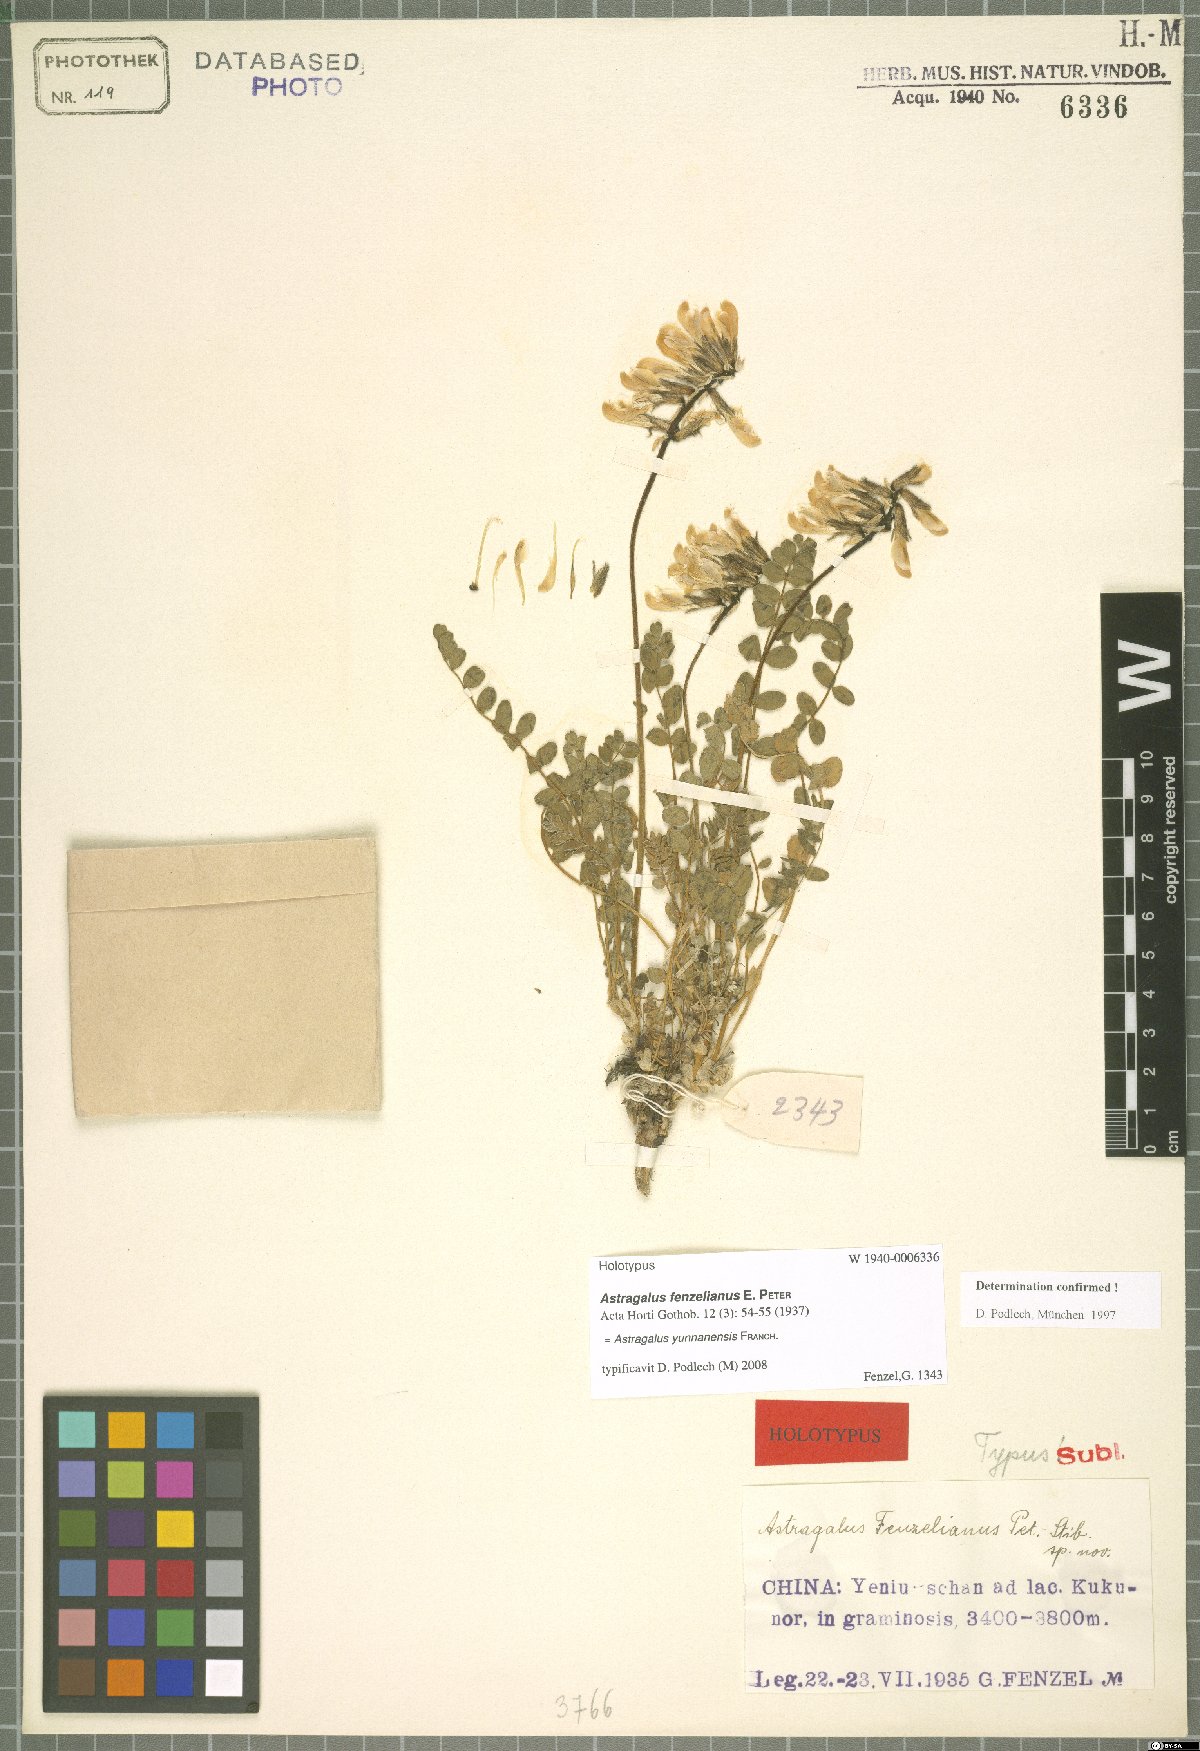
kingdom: Plantae
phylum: Tracheophyta
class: Magnoliopsida
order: Fabales
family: Fabaceae
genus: Astragalus
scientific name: Astragalus yunnanensis
